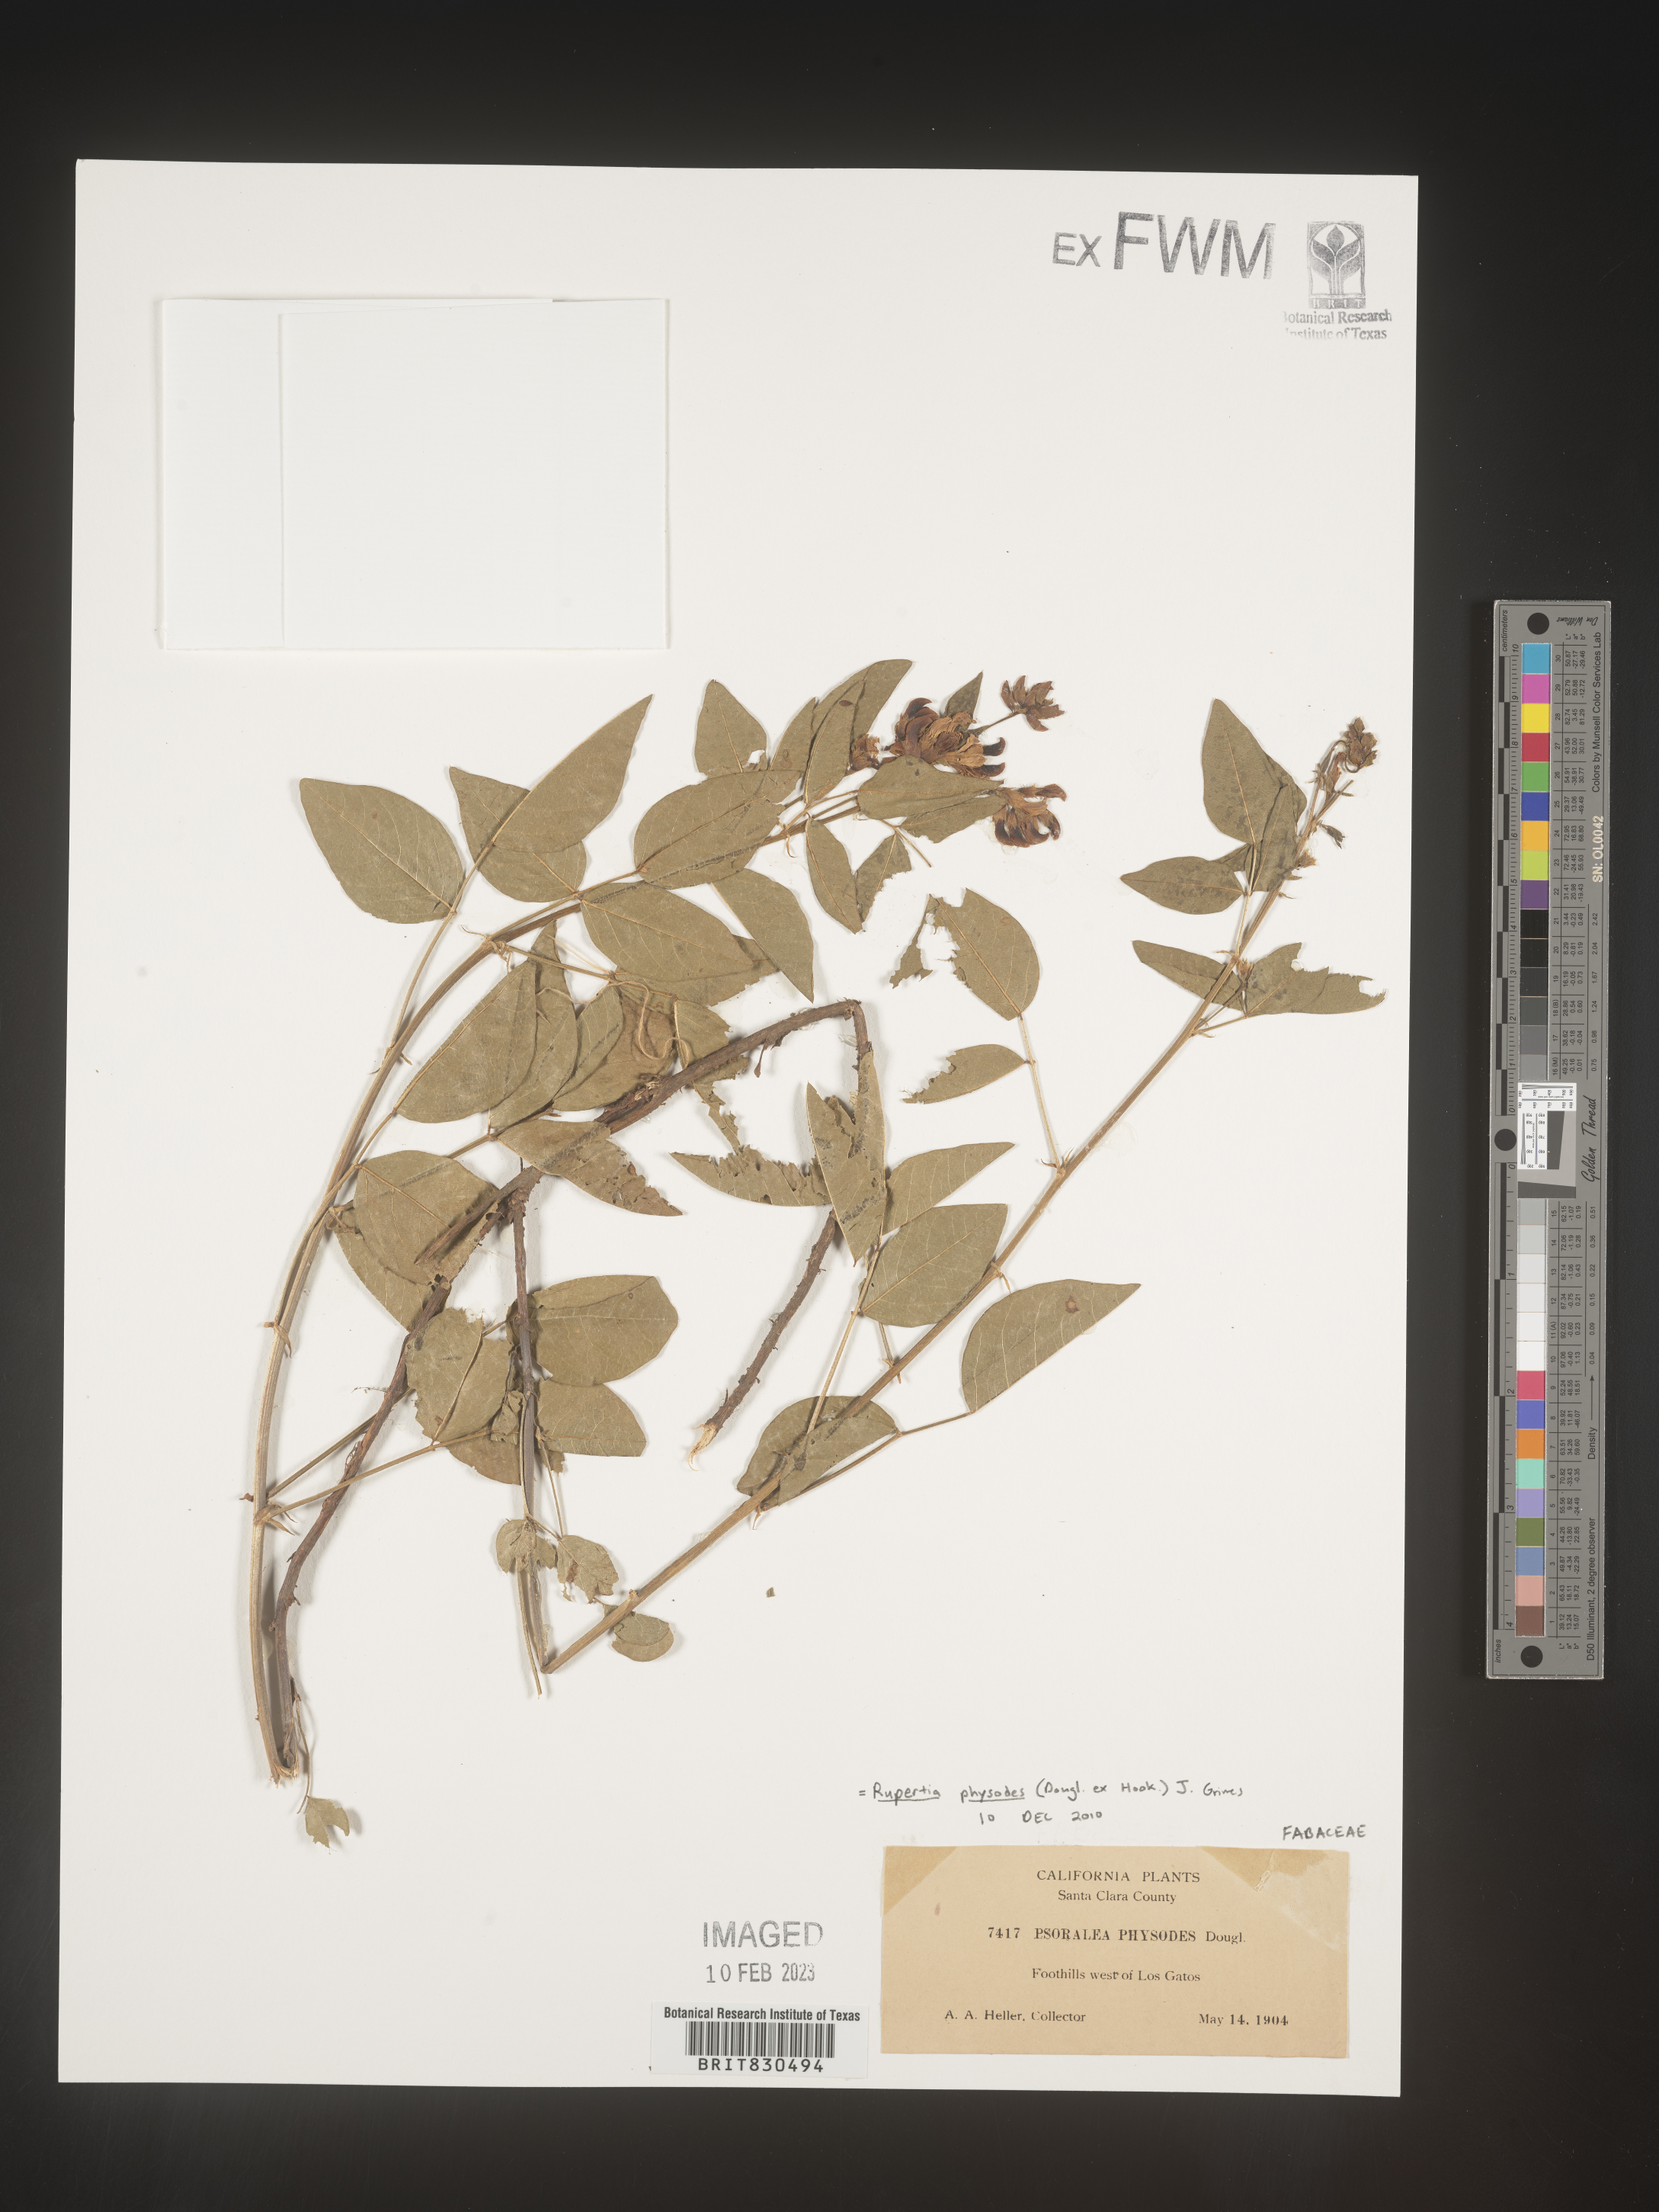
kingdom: Plantae
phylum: Tracheophyta
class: Magnoliopsida
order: Fabales
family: Fabaceae
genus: Rupertia
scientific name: Rupertia physodes
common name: California-tea
